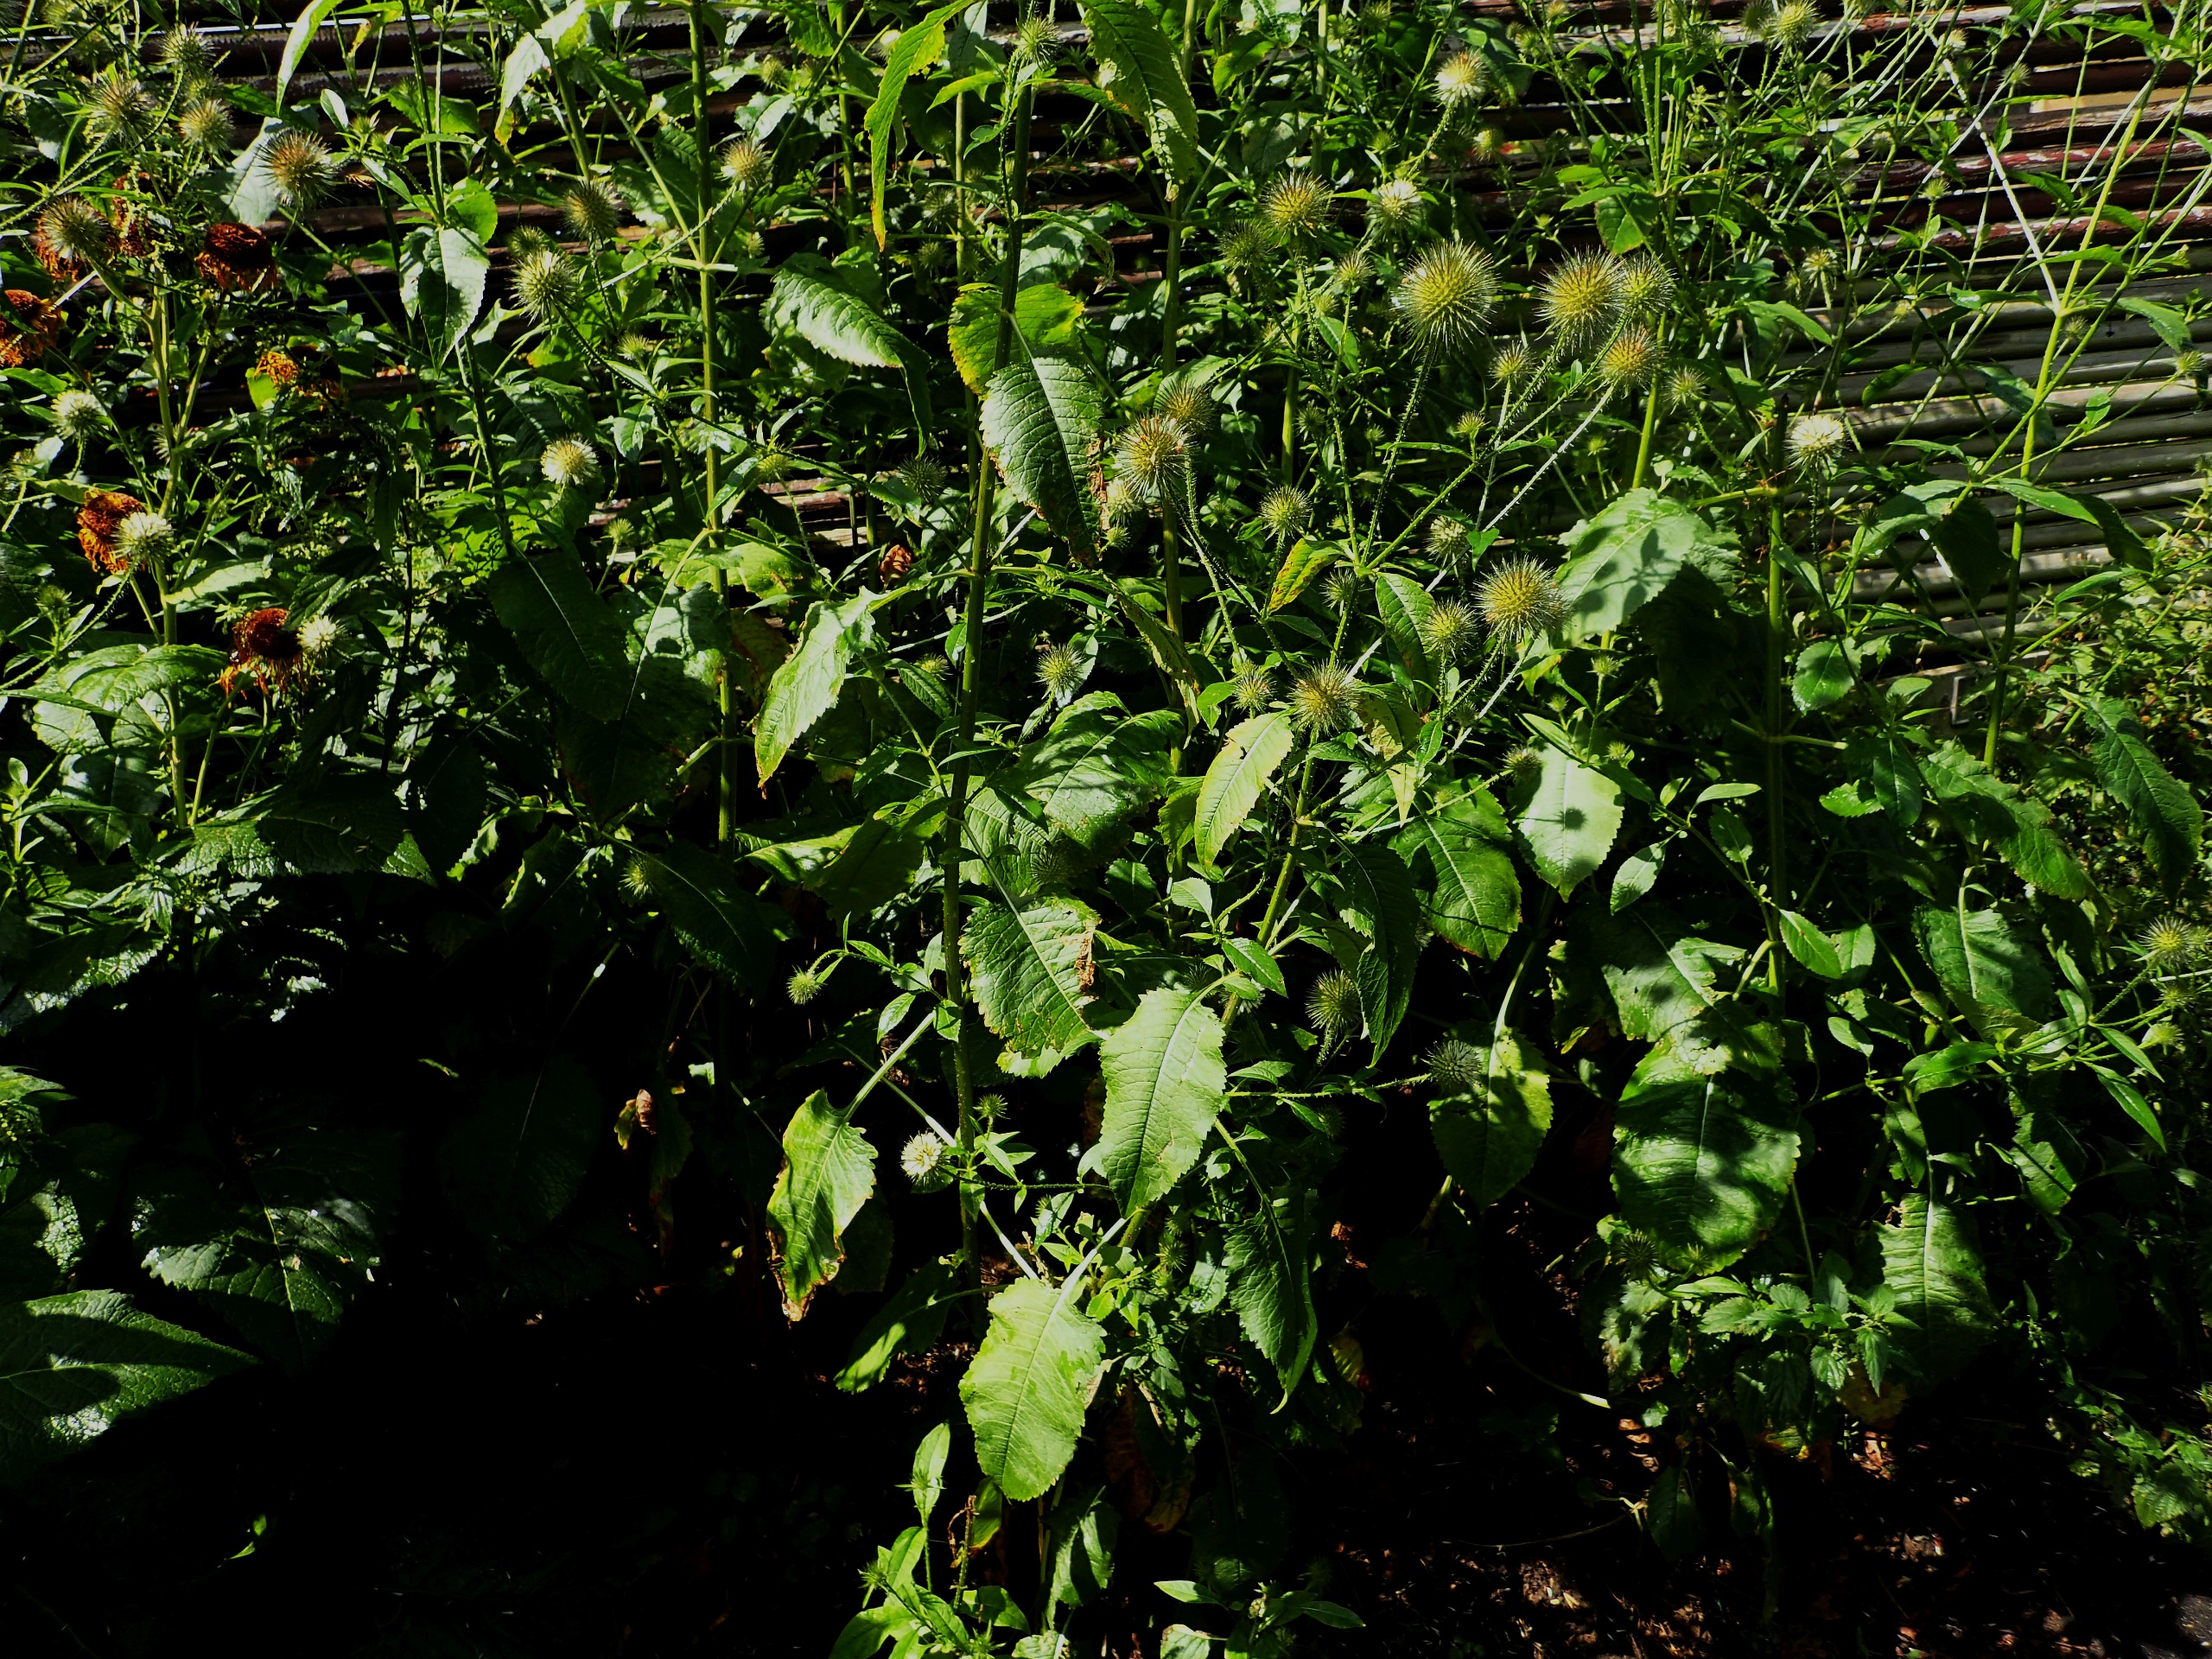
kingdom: Plantae
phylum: Tracheophyta
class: Magnoliopsida
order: Dipsacales
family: Caprifoliaceae
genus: Dipsacus
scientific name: Dipsacus strigosus
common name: Pindsvin-kartebolle
